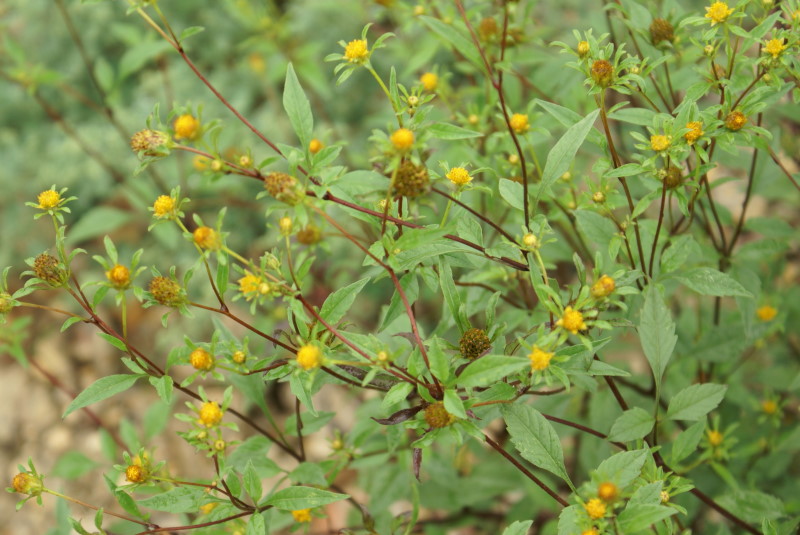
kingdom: Plantae
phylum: Tracheophyta
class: Magnoliopsida
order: Asterales
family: Asteraceae
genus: Bidens
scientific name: Bidens frondosa
